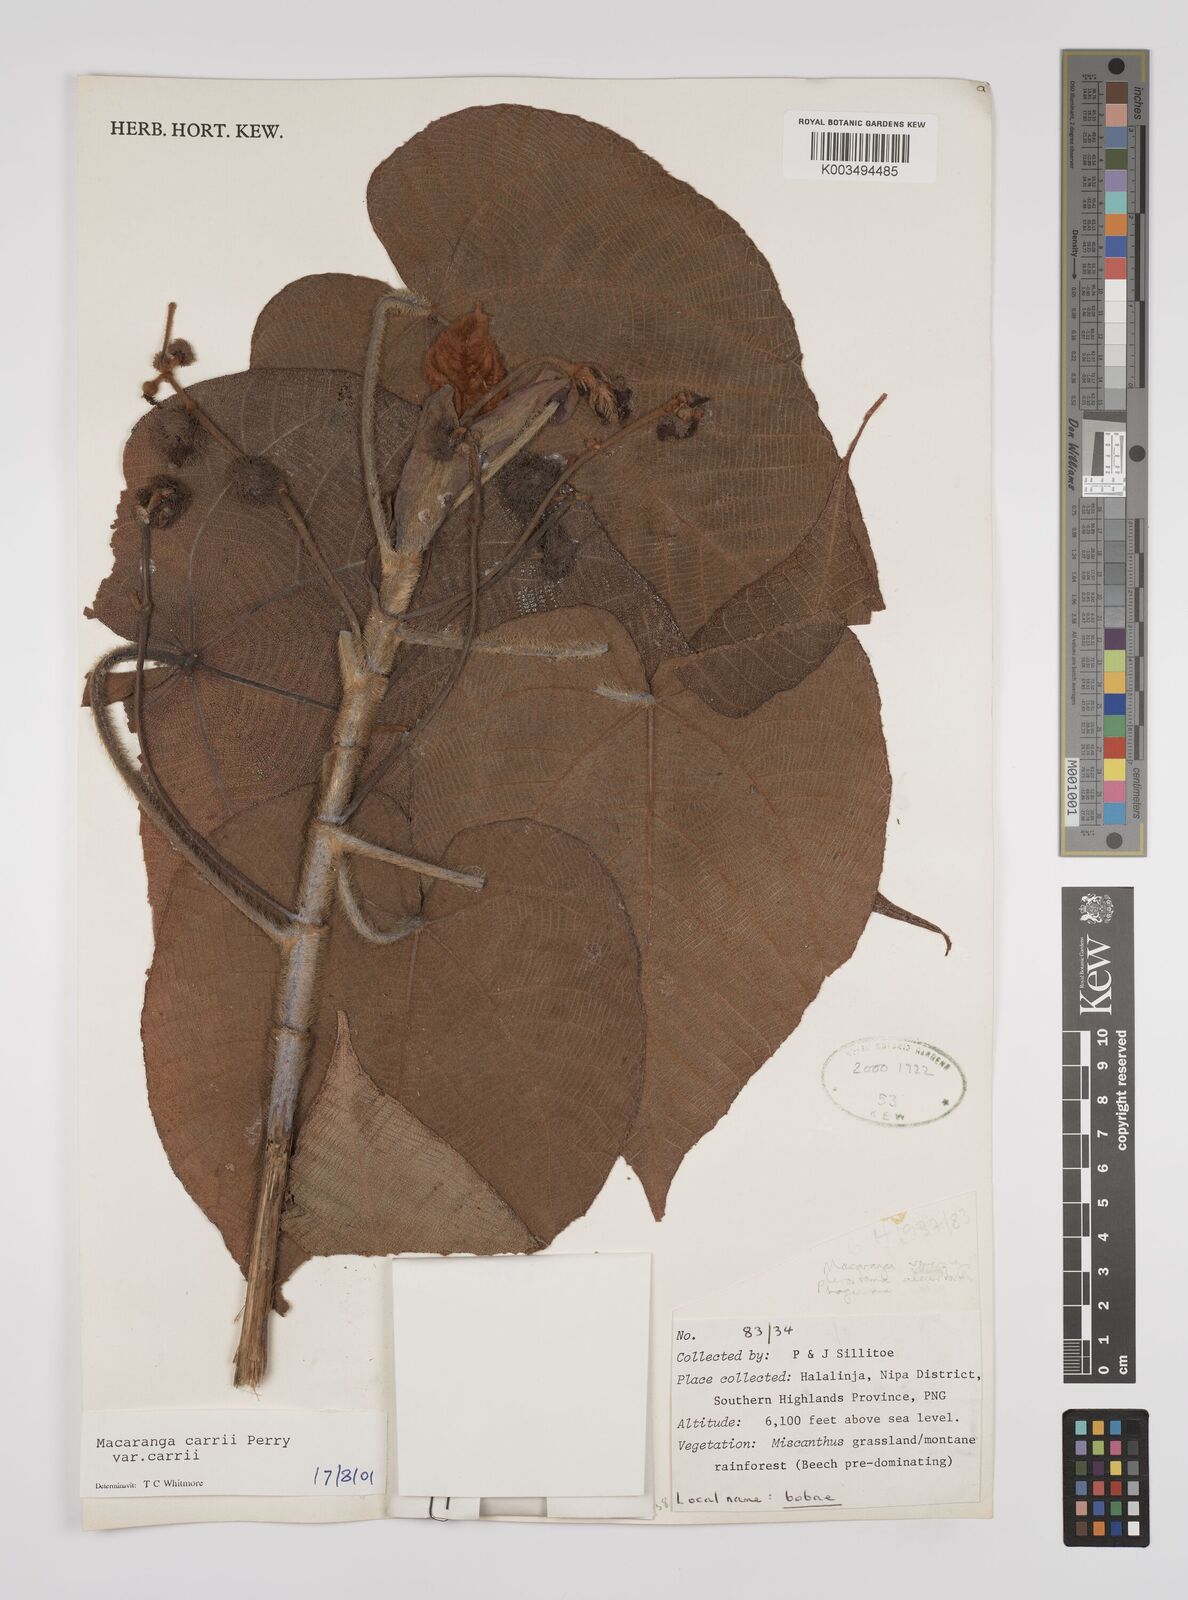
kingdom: Plantae
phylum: Tracheophyta
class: Magnoliopsida
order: Malpighiales
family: Euphorbiaceae
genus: Macaranga
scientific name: Macaranga carrii
